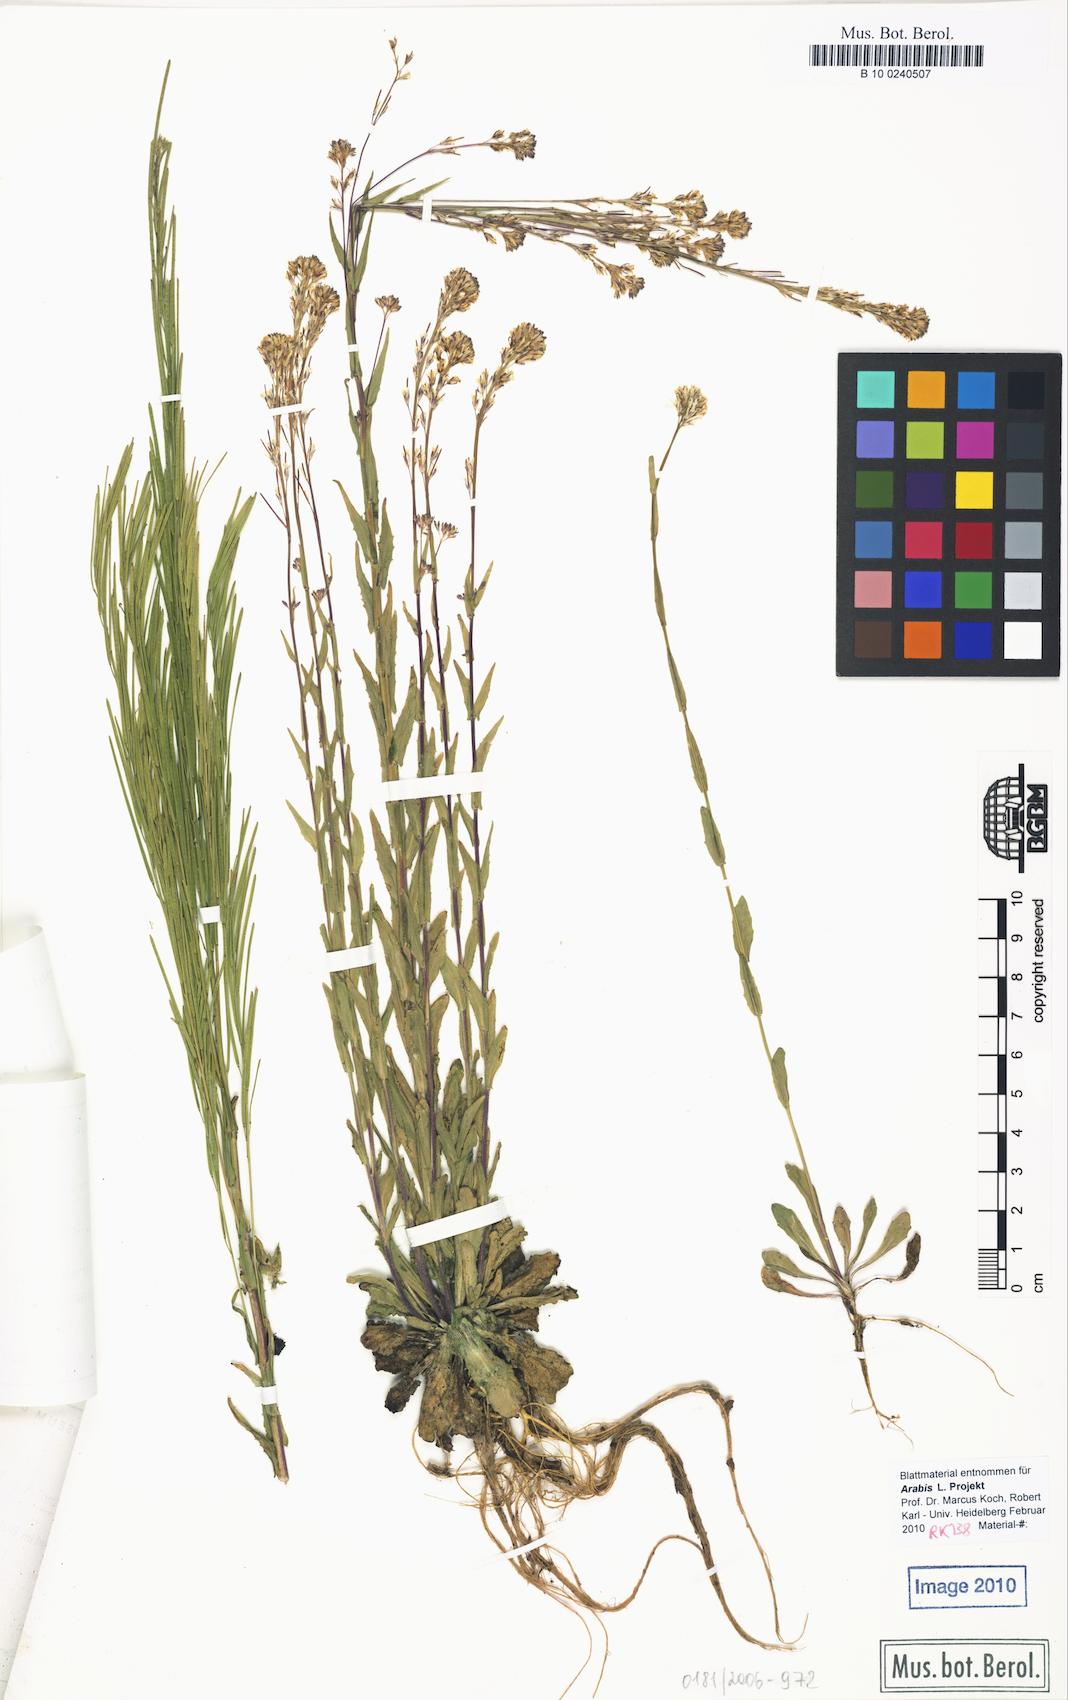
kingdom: Plantae
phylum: Tracheophyta
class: Magnoliopsida
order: Brassicales
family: Brassicaceae
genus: Arabis
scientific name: Arabis sagittata
